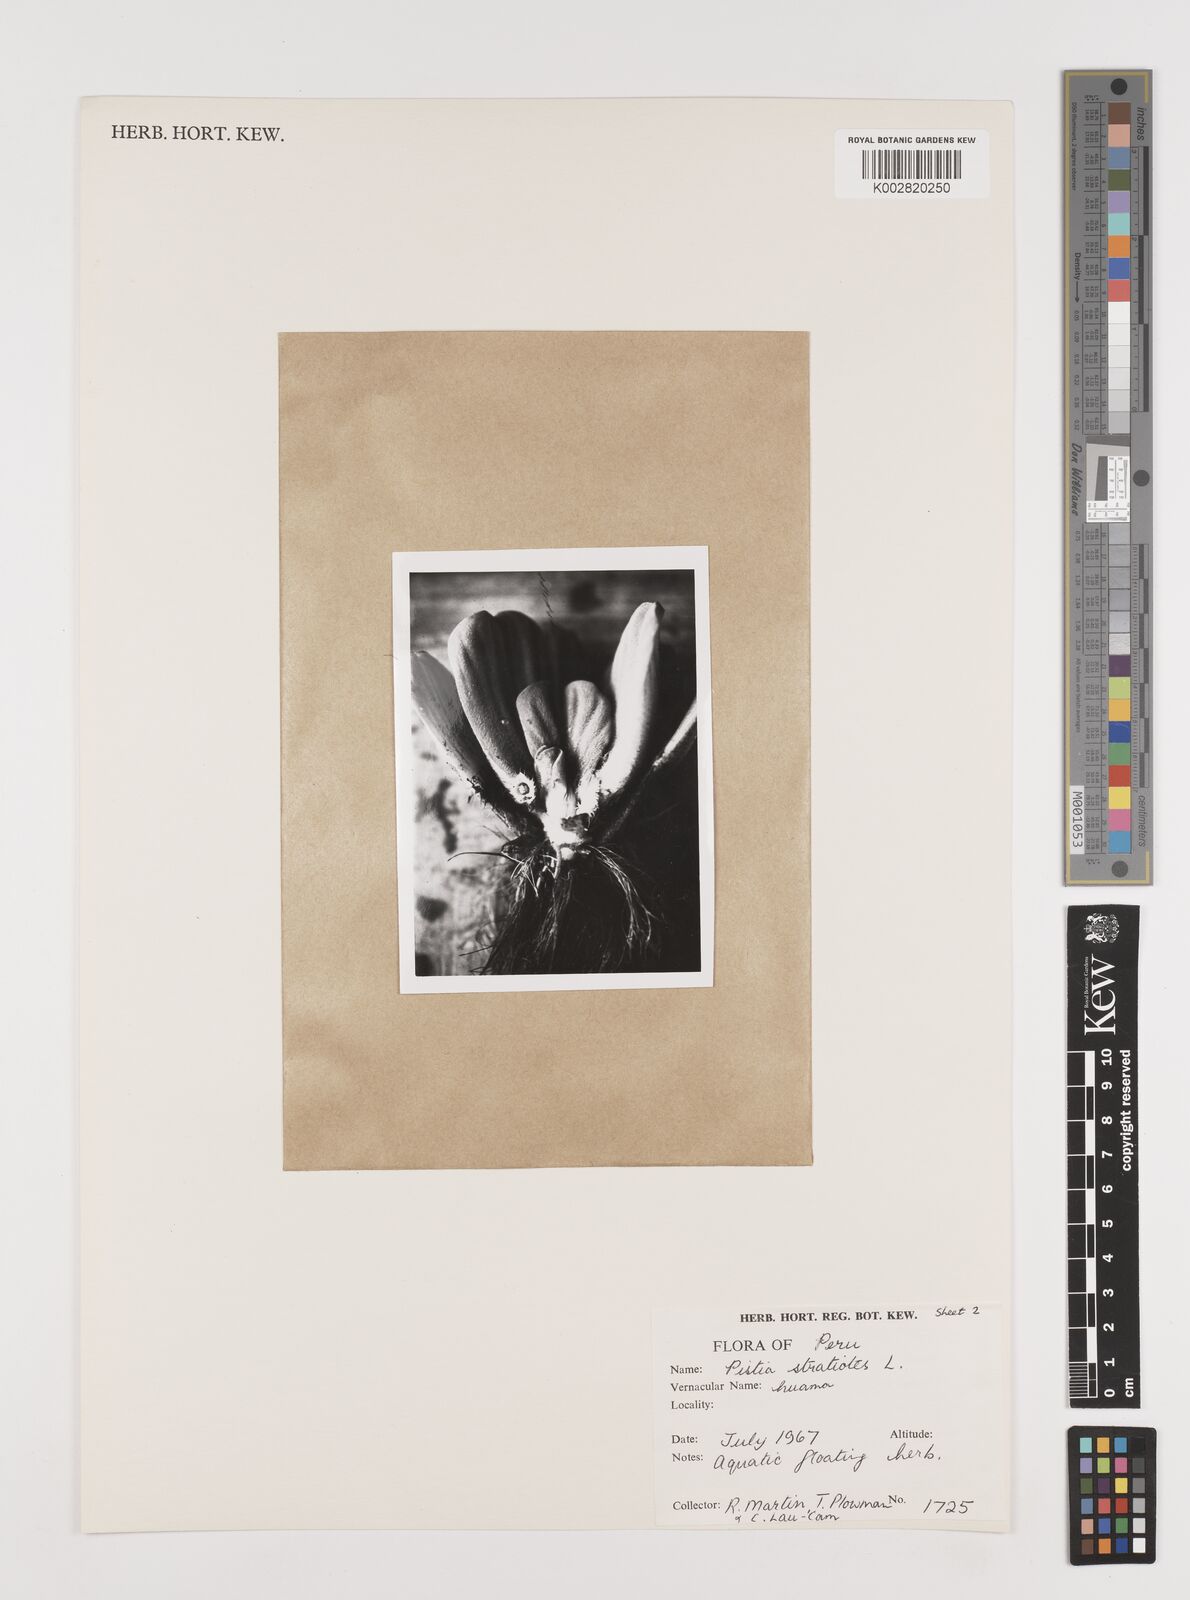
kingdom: Plantae
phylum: Tracheophyta
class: Liliopsida
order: Alismatales
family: Araceae
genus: Pistia
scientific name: Pistia stratiotes
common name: Water lettuce
